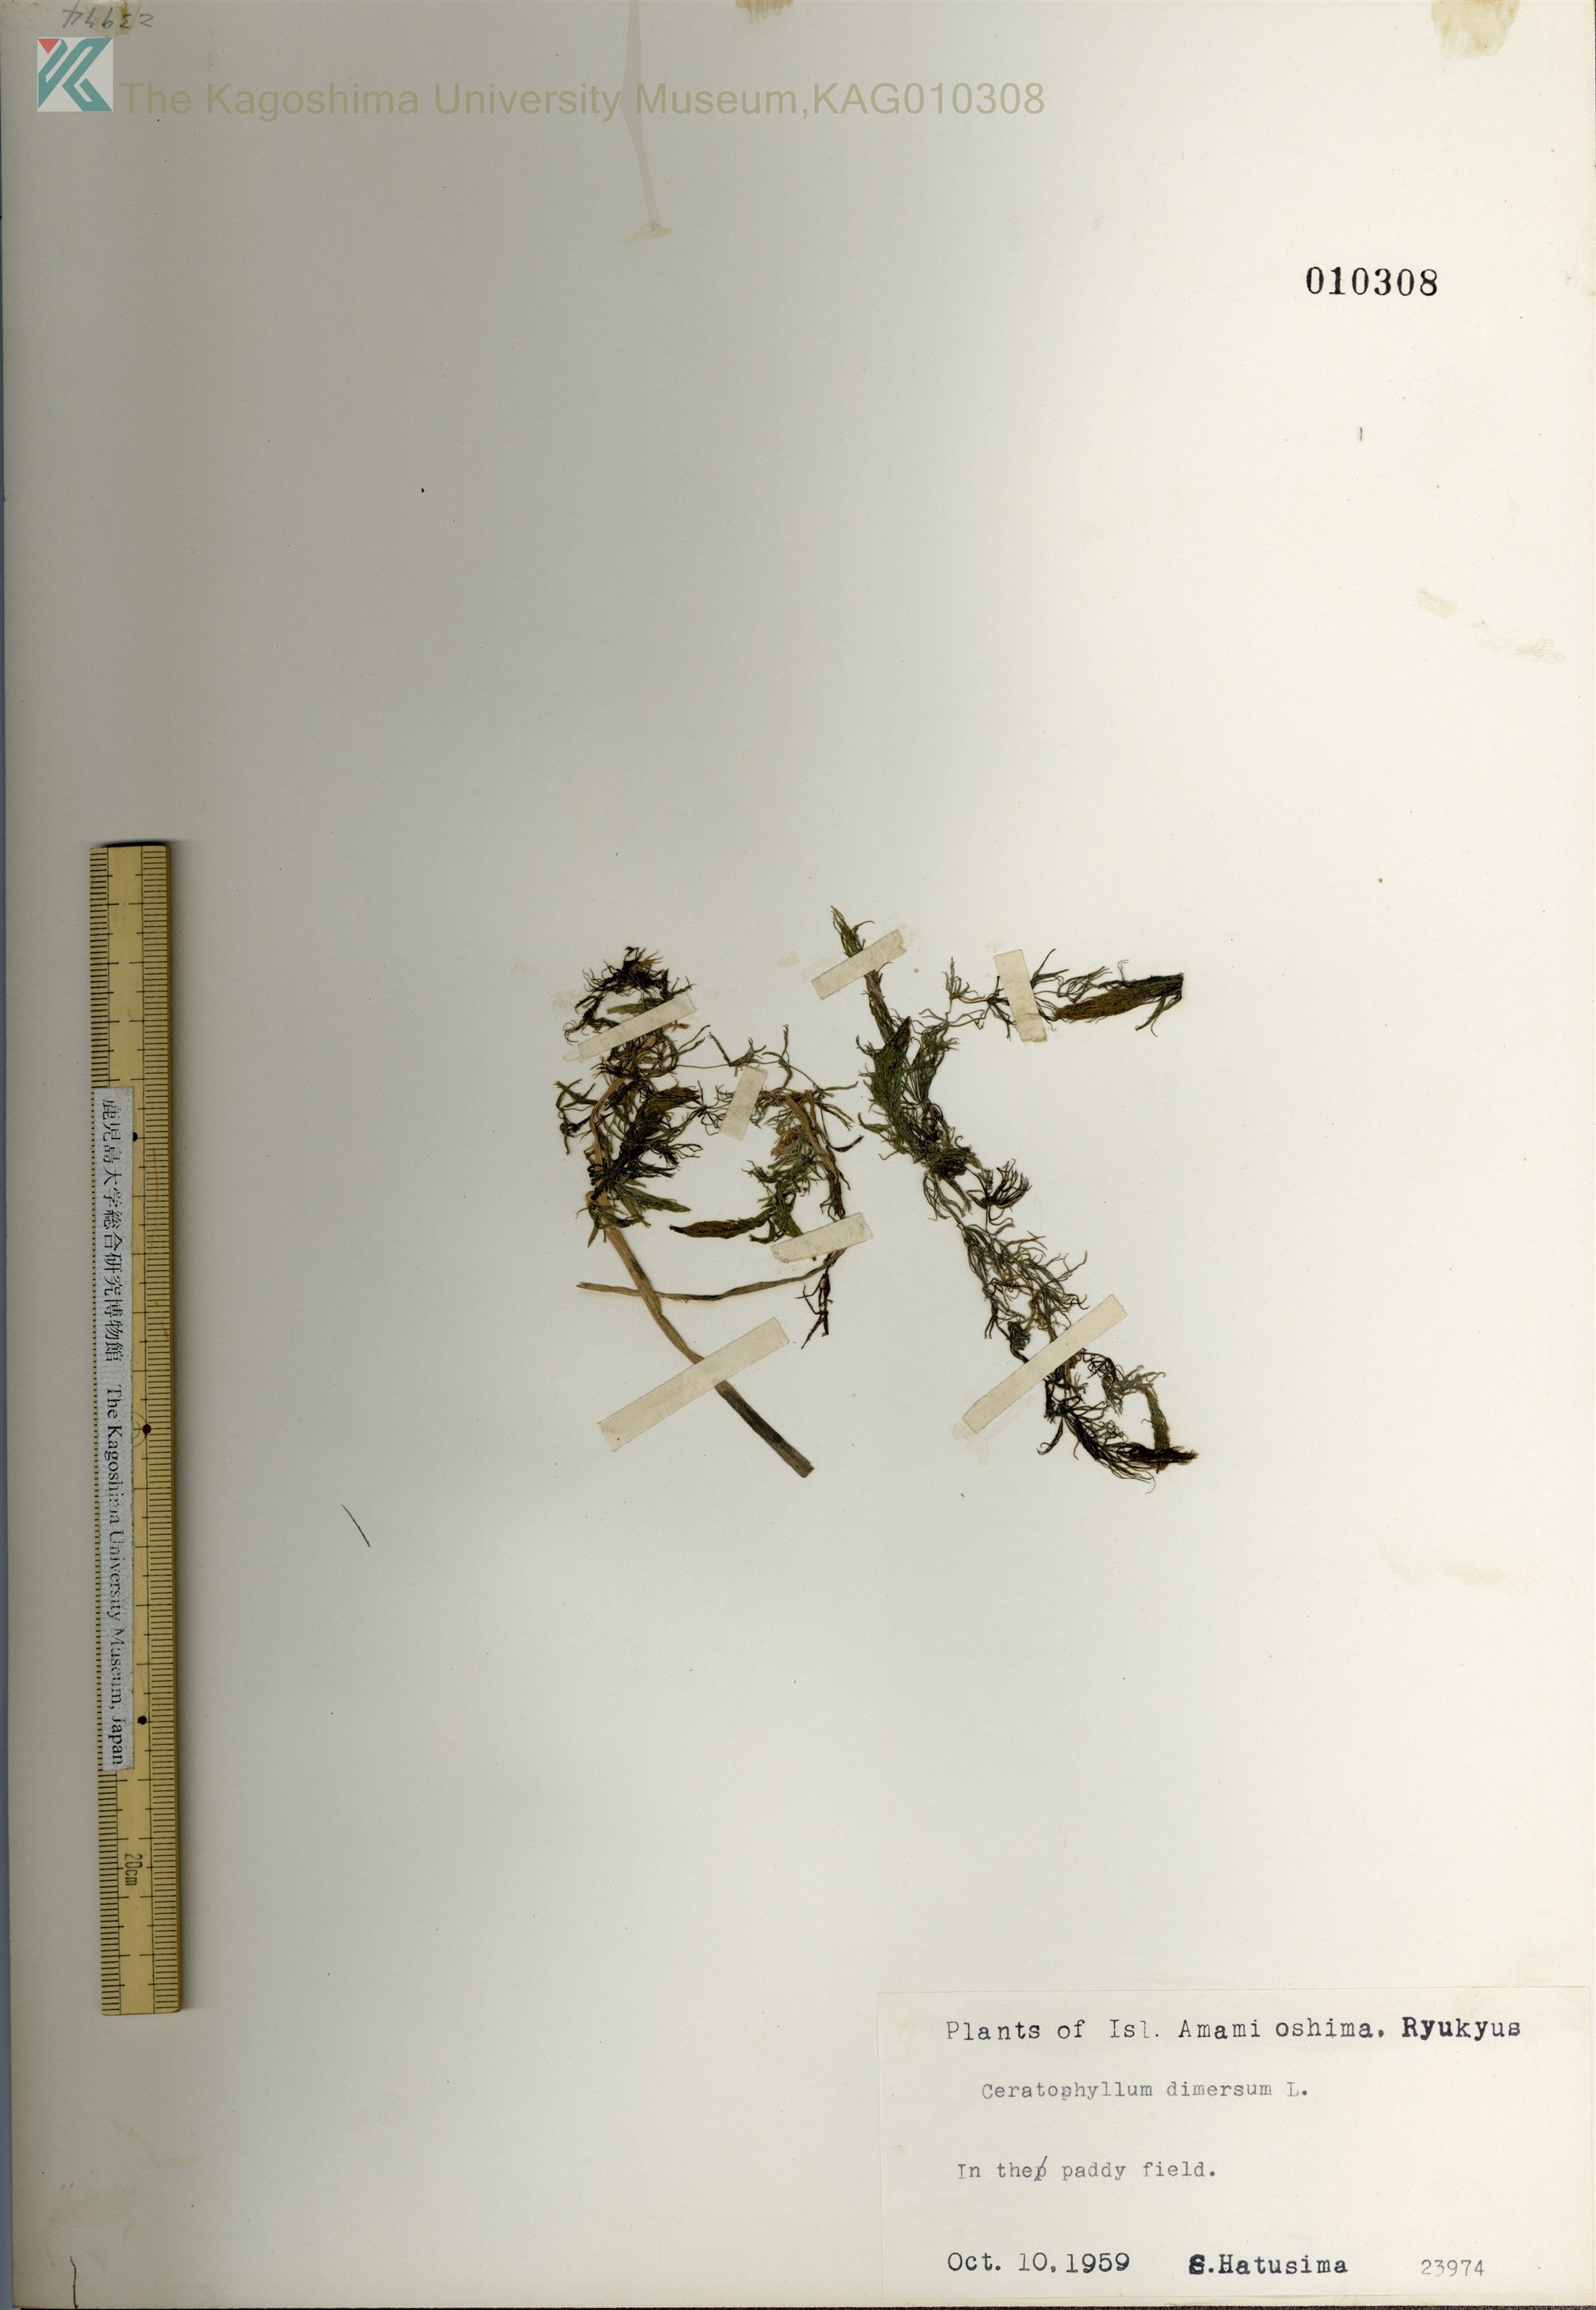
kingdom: Plantae
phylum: Tracheophyta
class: Magnoliopsida
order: Ceratophyllales
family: Ceratophyllaceae
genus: Ceratophyllum
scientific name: Ceratophyllum demersum
